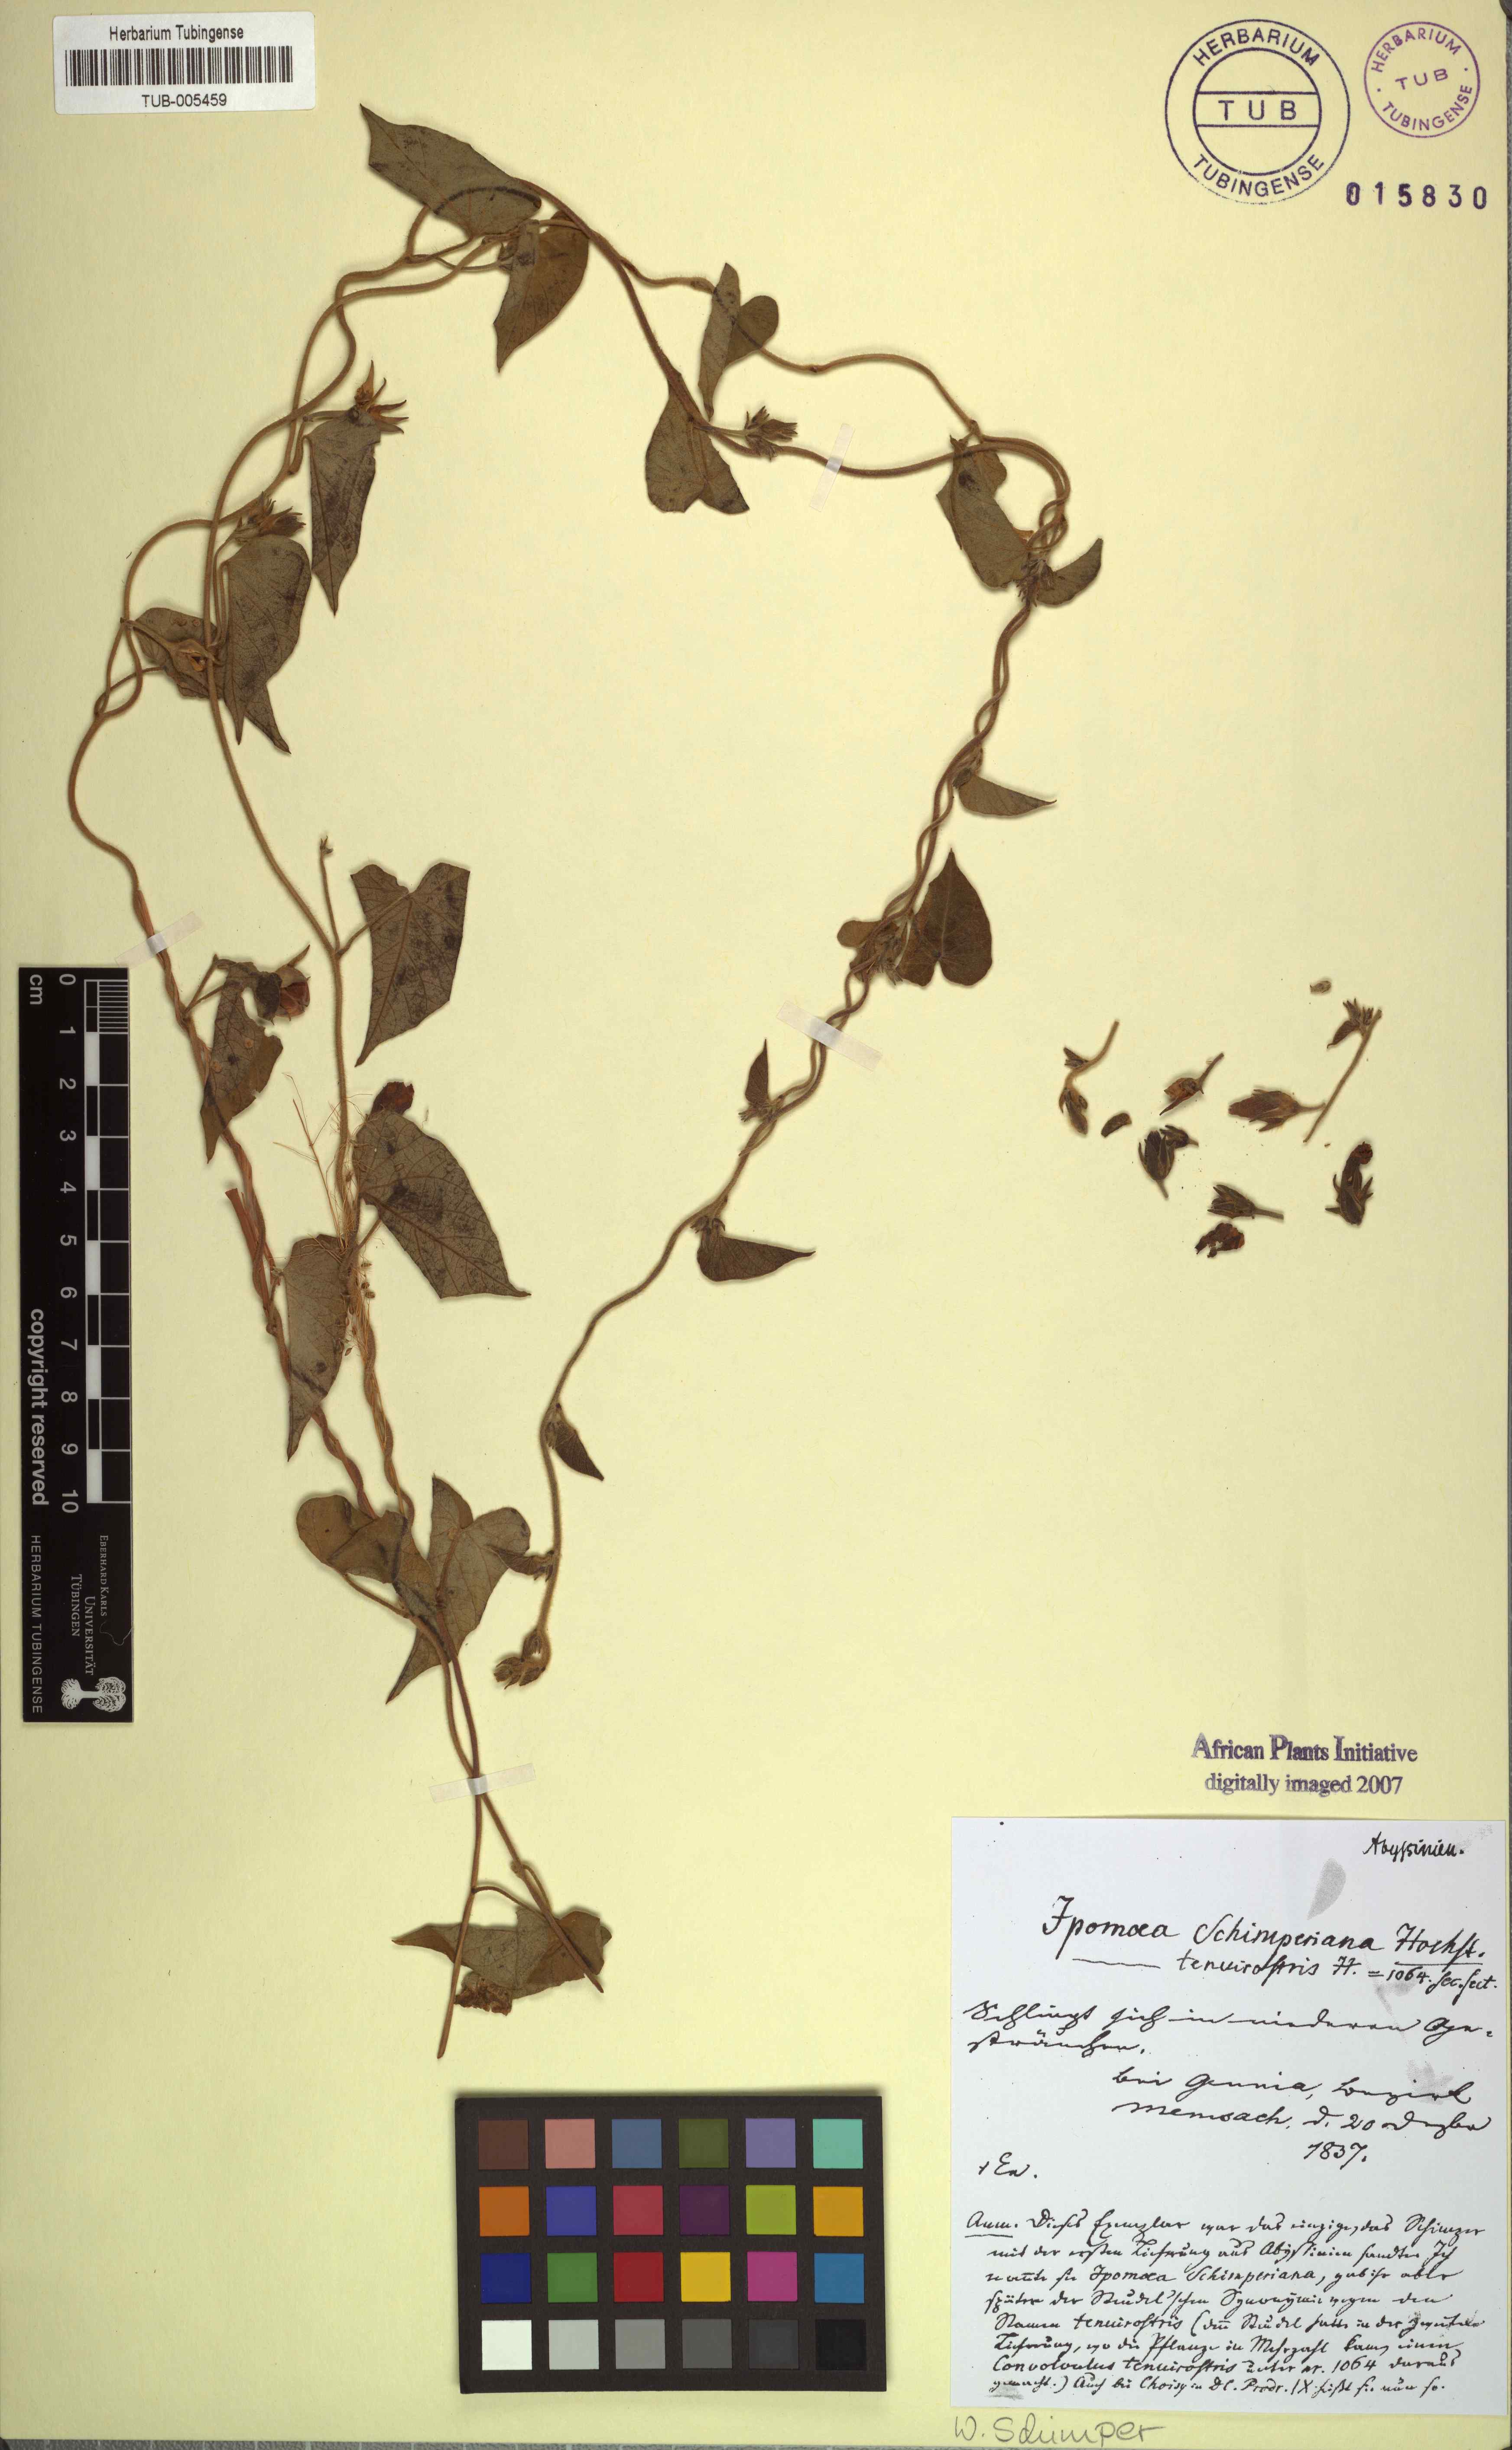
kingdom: Plantae
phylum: Tracheophyta
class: Magnoliopsida
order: Solanales
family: Convolvulaceae
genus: Ipomoea
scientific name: Ipomoea tenuirostris
